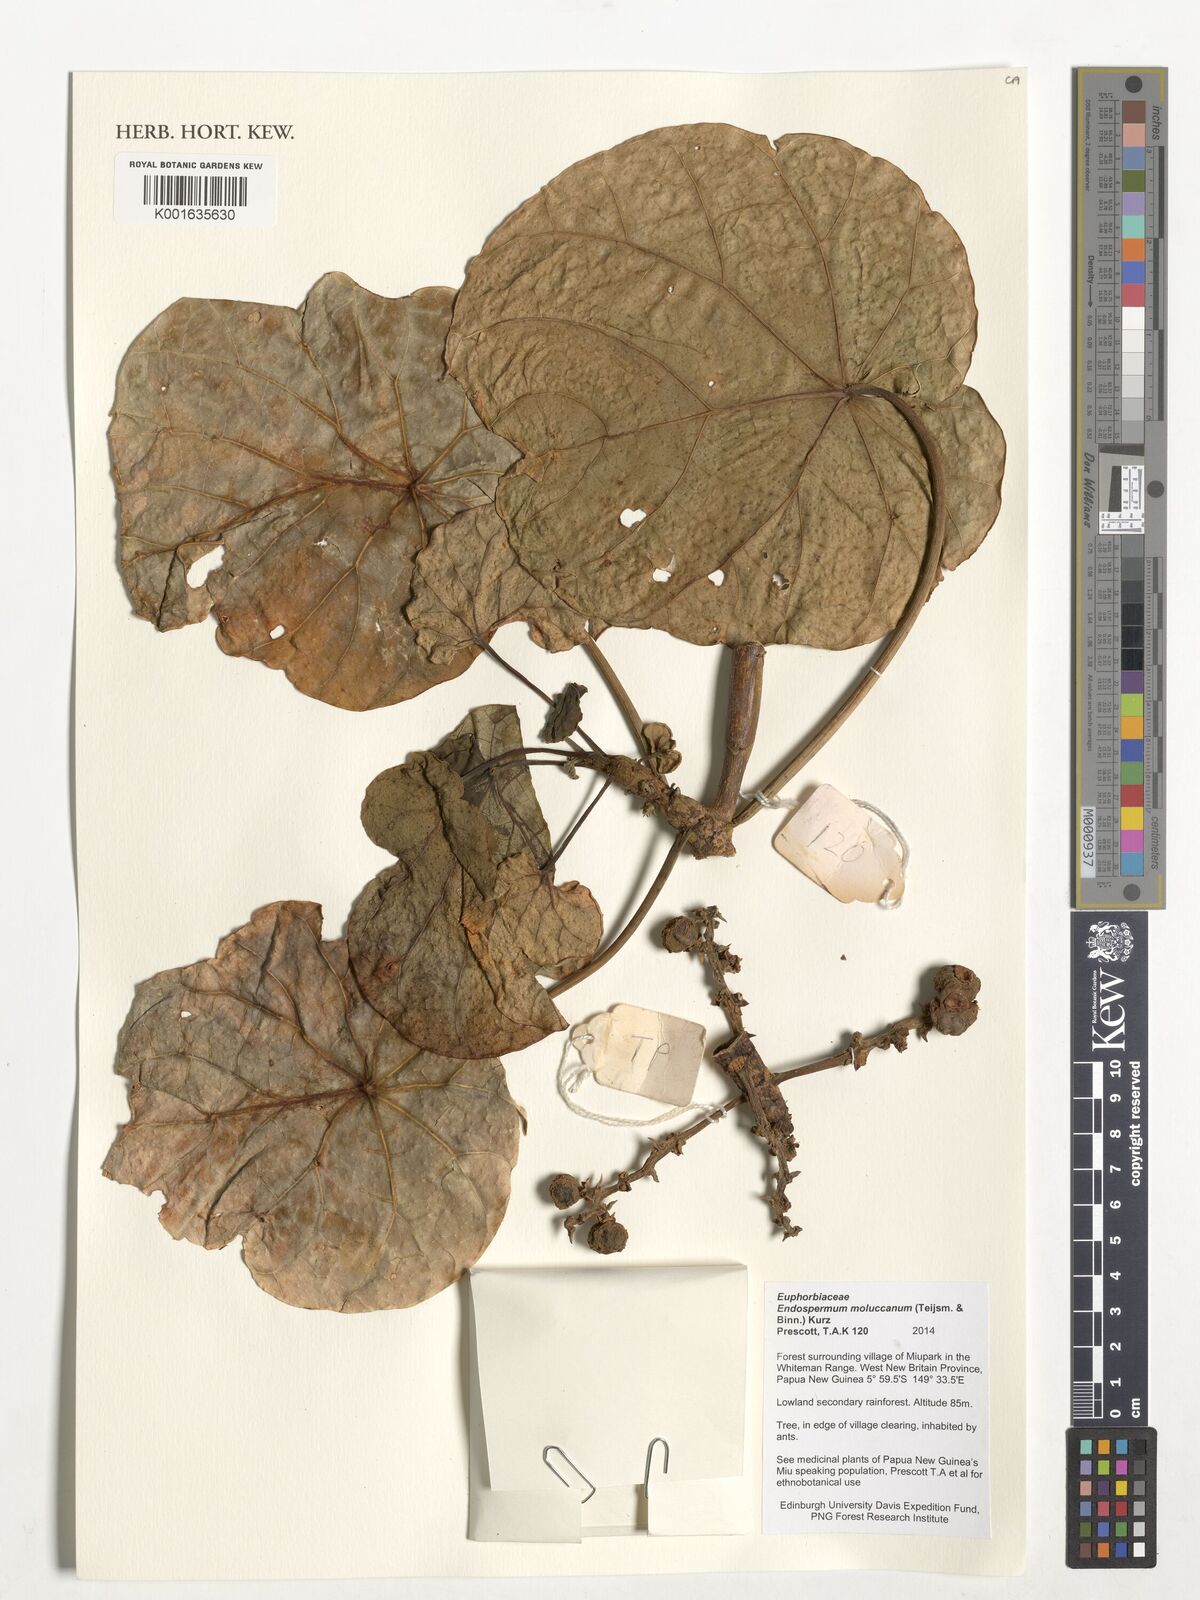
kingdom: Plantae
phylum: Tracheophyta
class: Magnoliopsida
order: Malpighiales
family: Euphorbiaceae
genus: Endospermum
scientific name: Endospermum moluccanum
